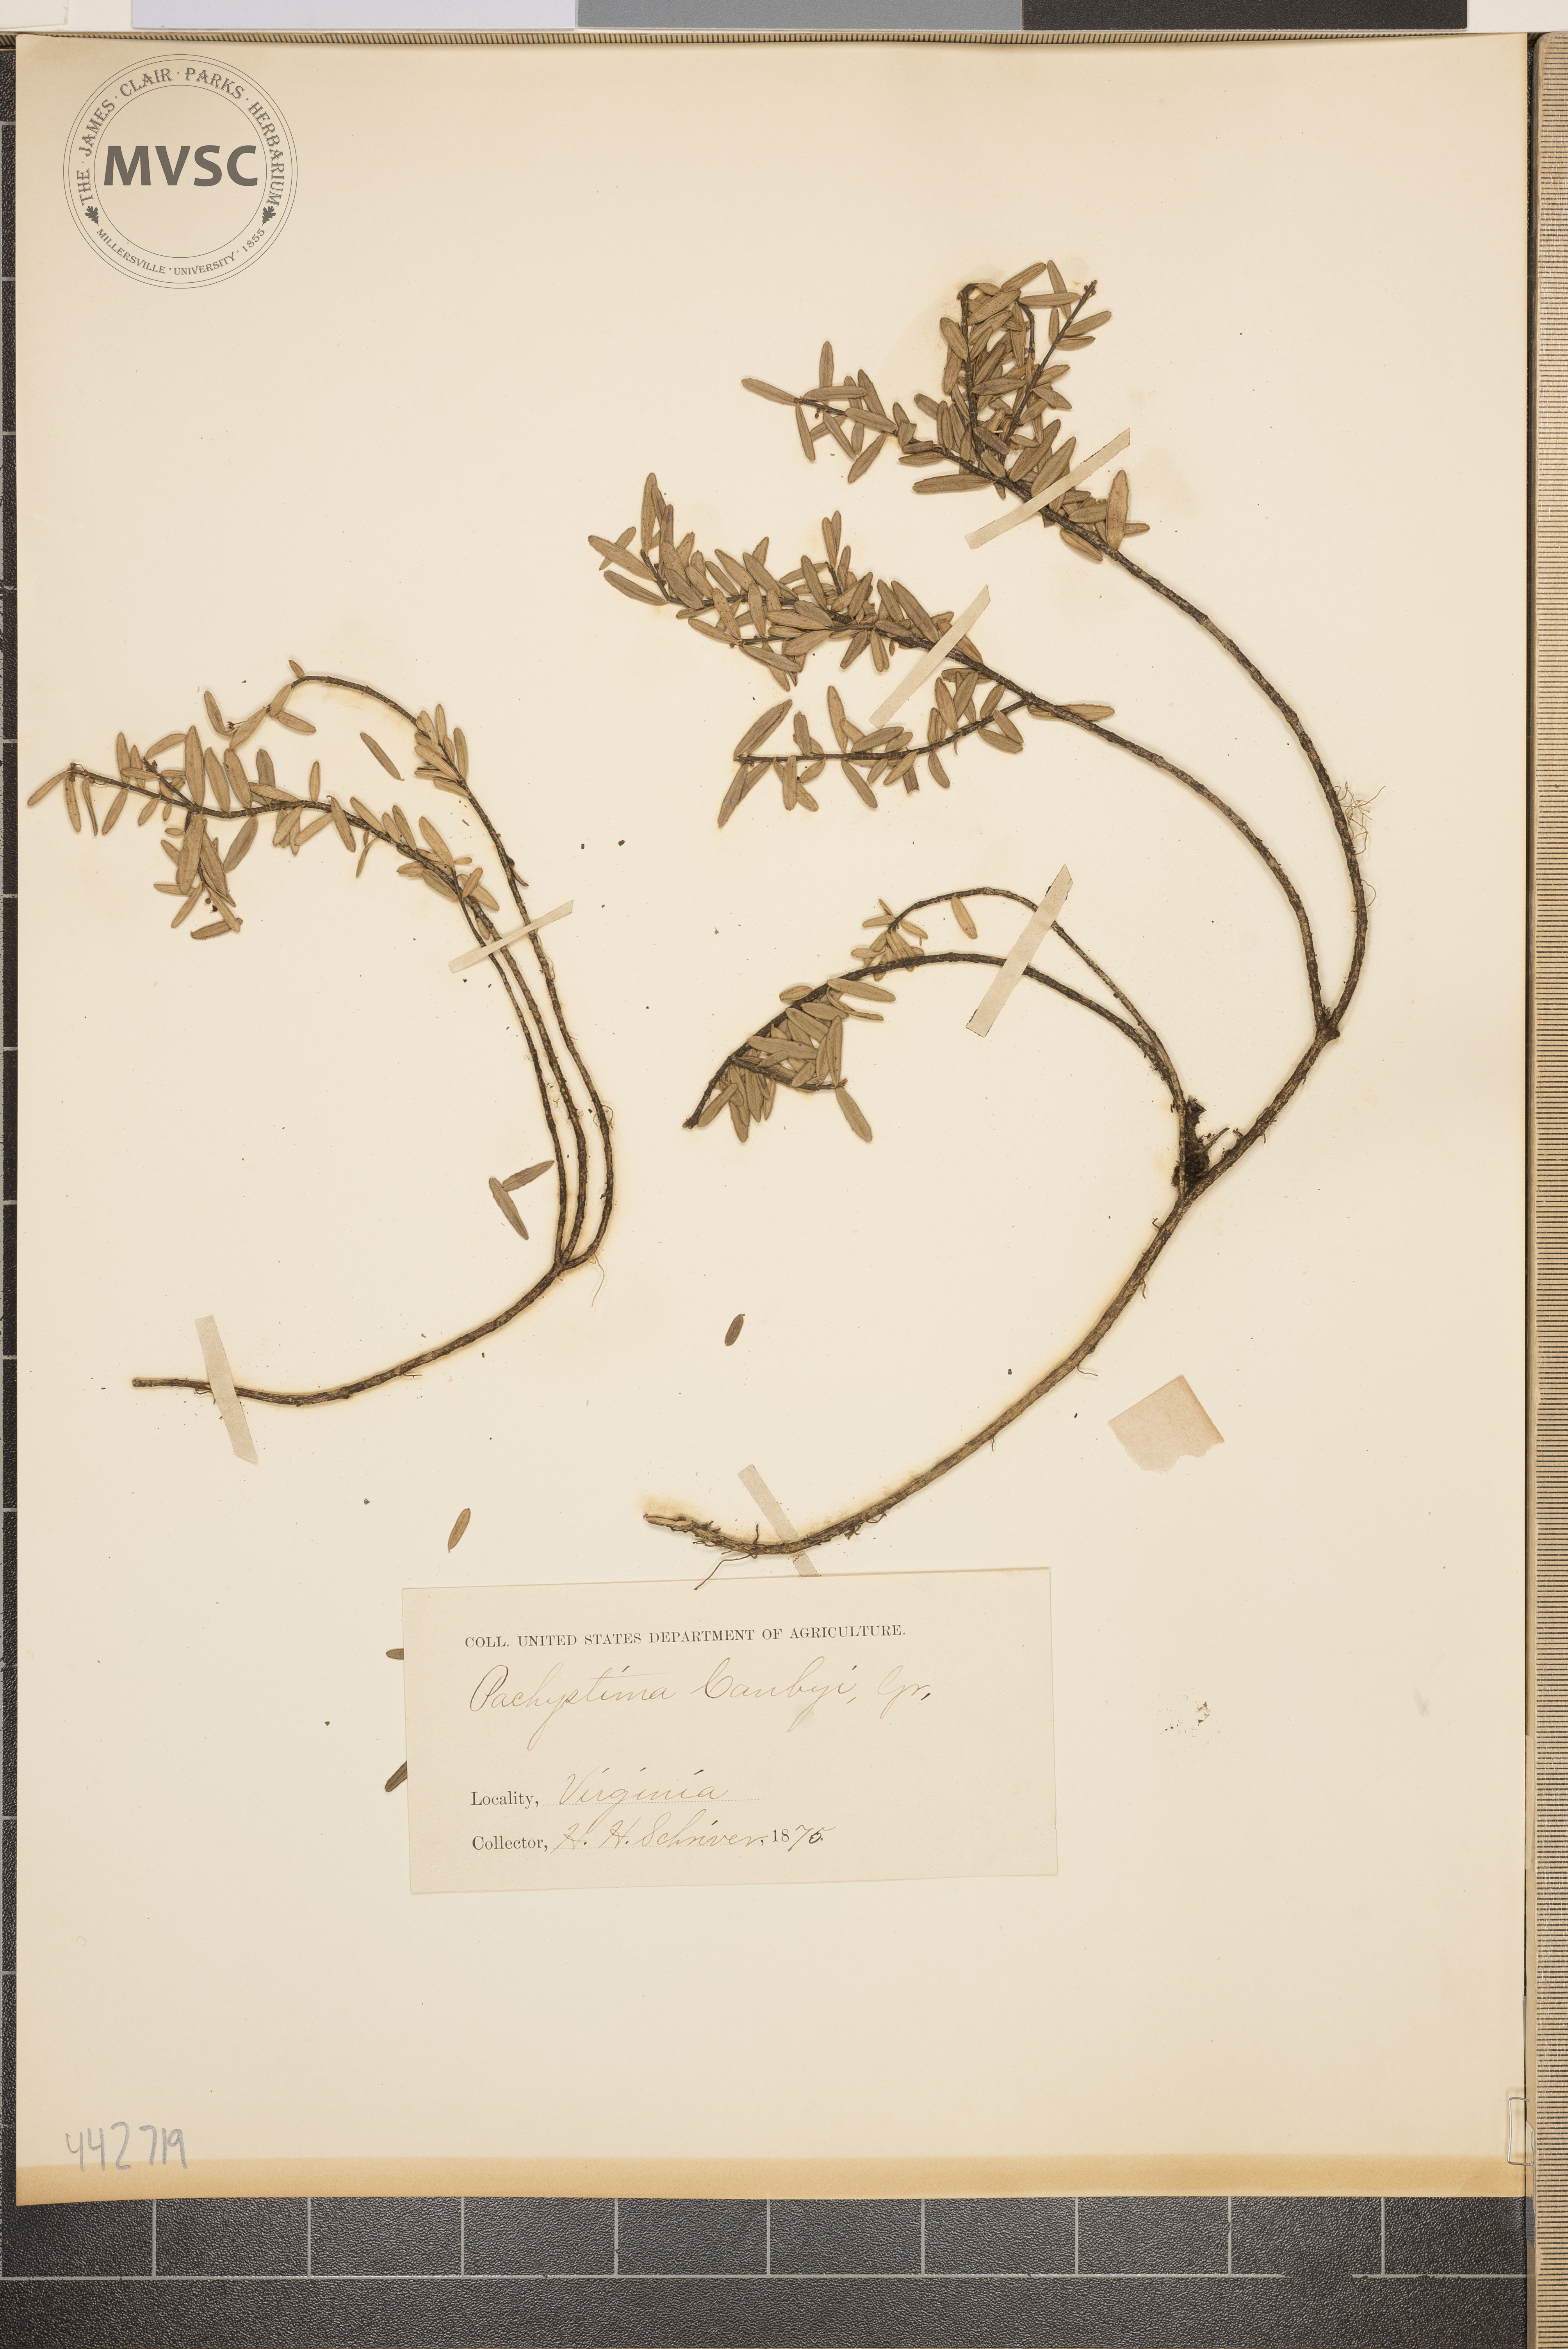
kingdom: Plantae
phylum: Tracheophyta
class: Magnoliopsida
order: Celastrales
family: Celastraceae
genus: Paxistima
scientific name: Paxistima canbyi
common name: Cliffgreen
